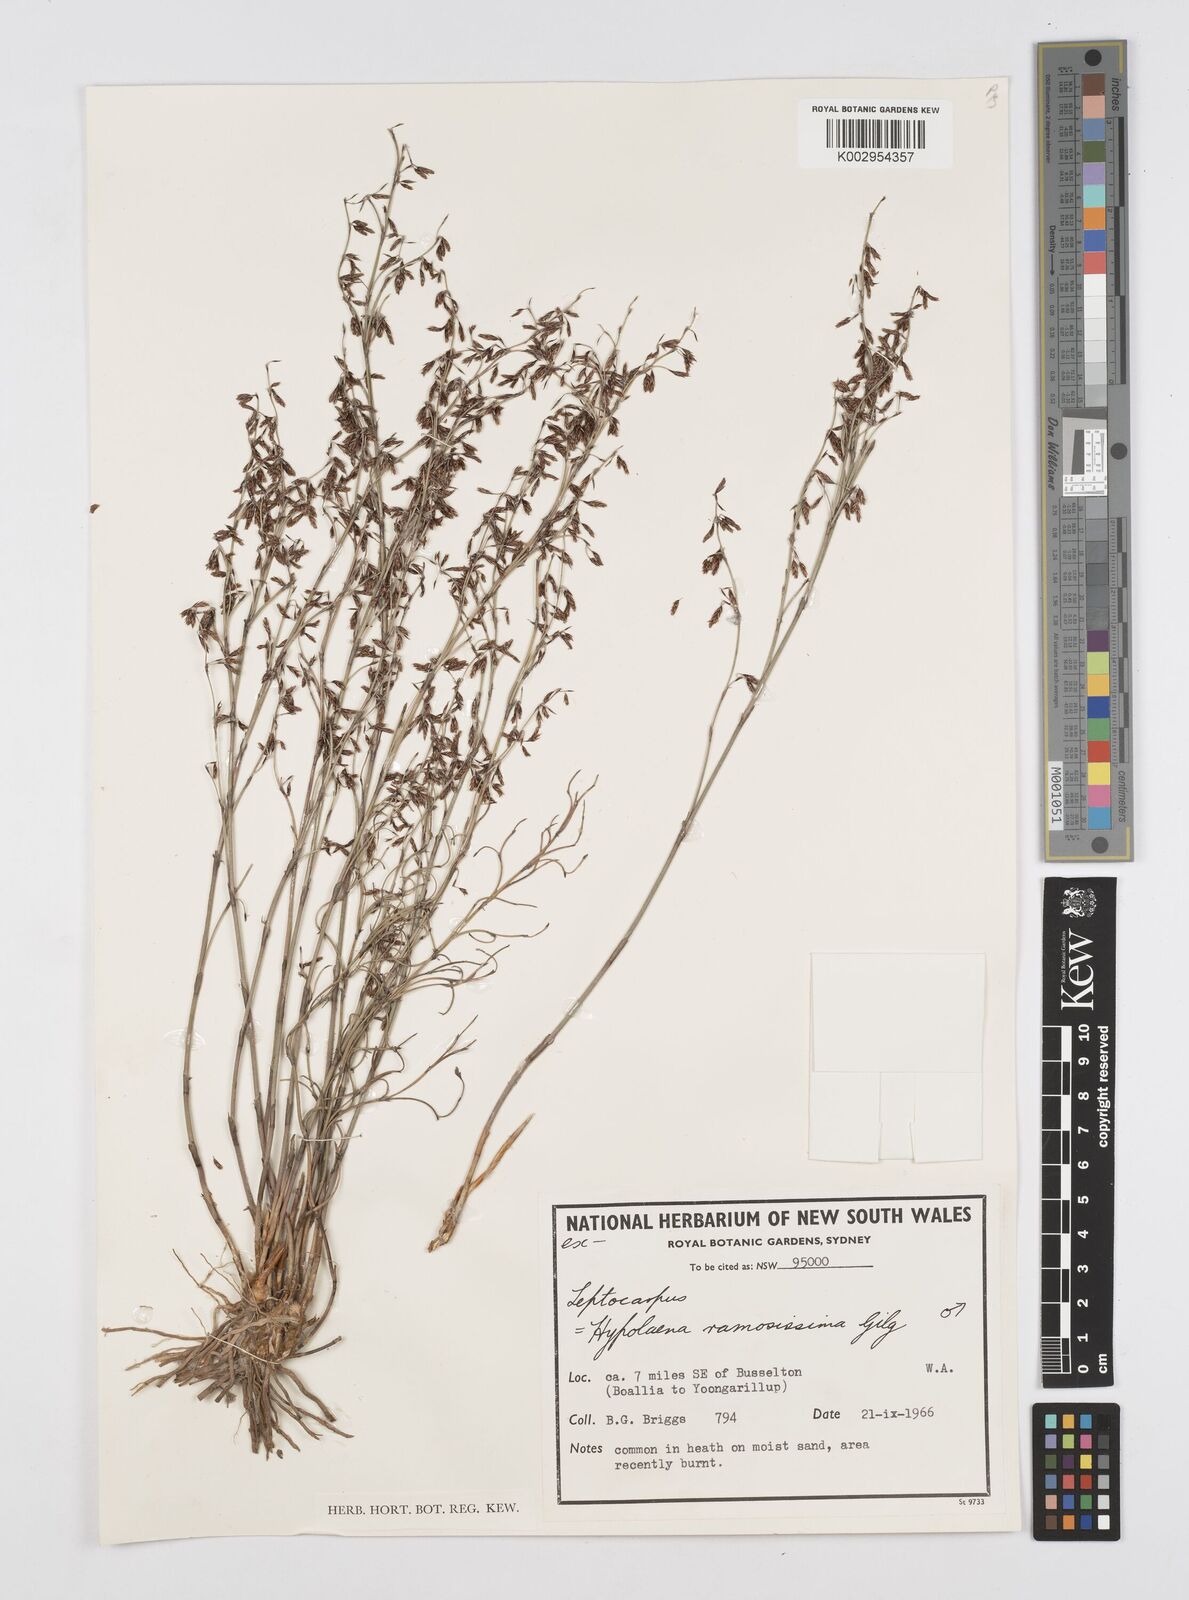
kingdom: Plantae
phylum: Tracheophyta
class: Liliopsida
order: Poales
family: Restionaceae
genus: Leptocarpus
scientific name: Leptocarpus
